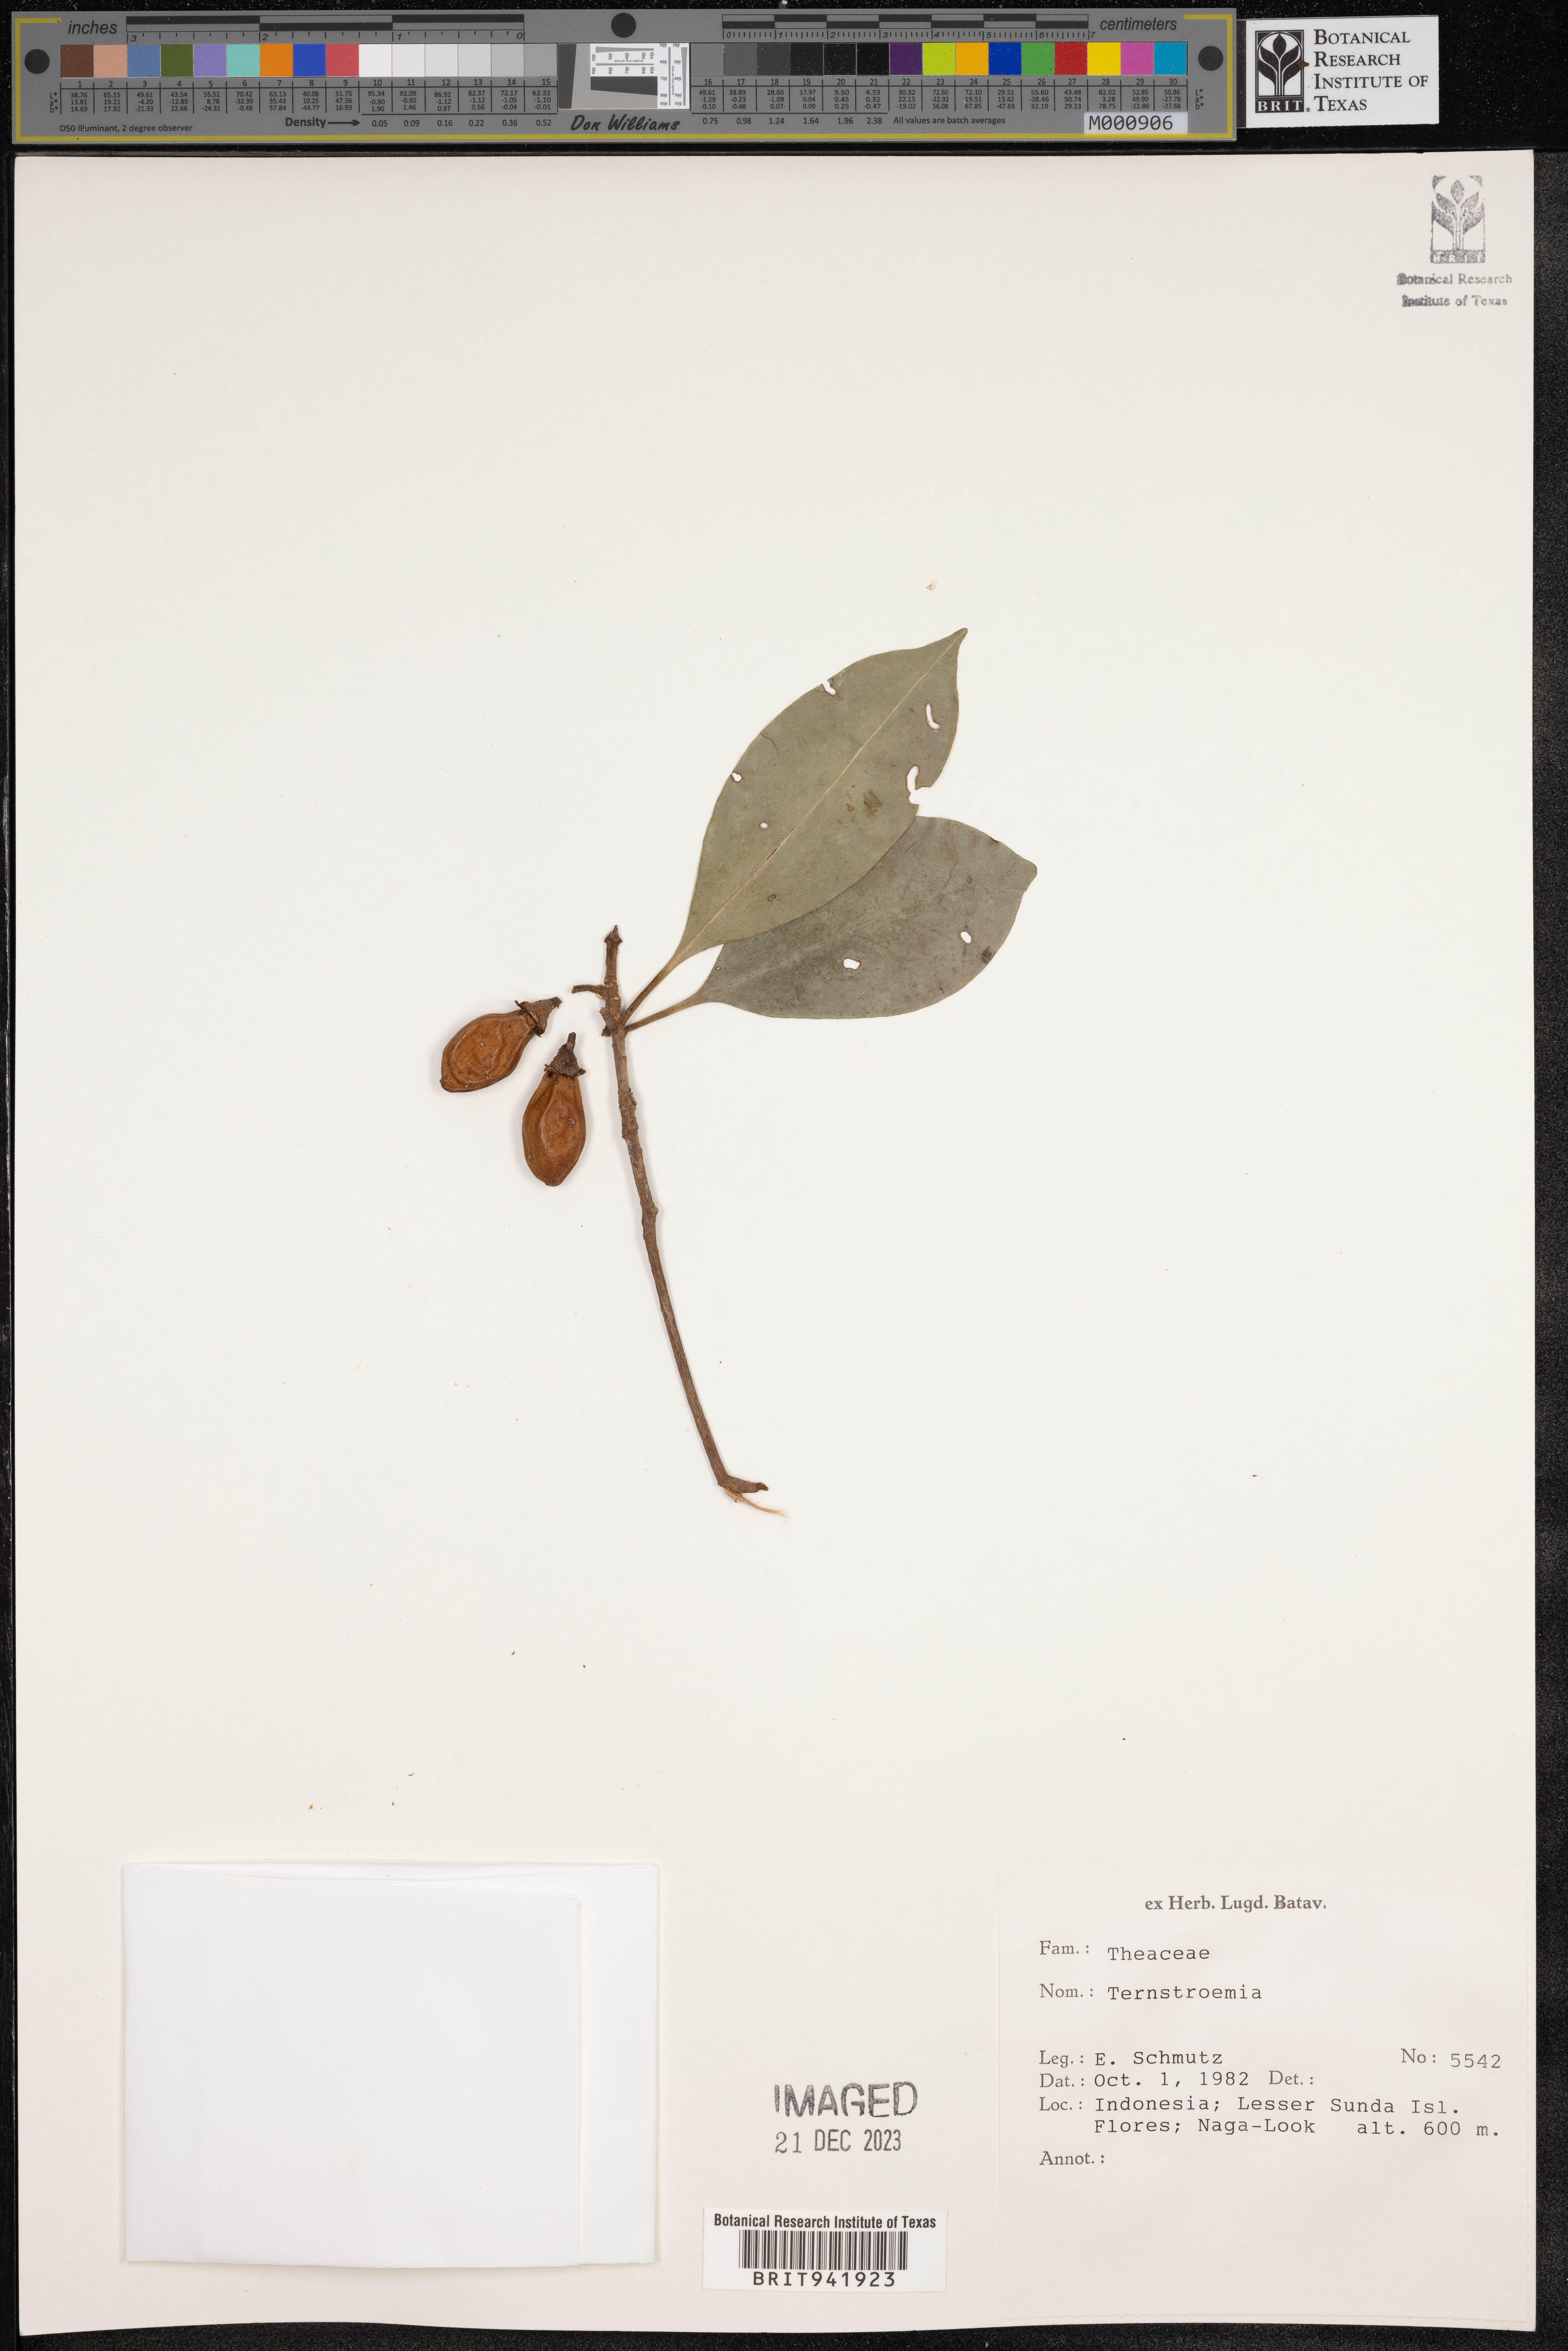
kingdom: Plantae
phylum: Tracheophyta
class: Magnoliopsida
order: Ericales
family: Theaceae
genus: Terustroemia
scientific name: Terustroemia
